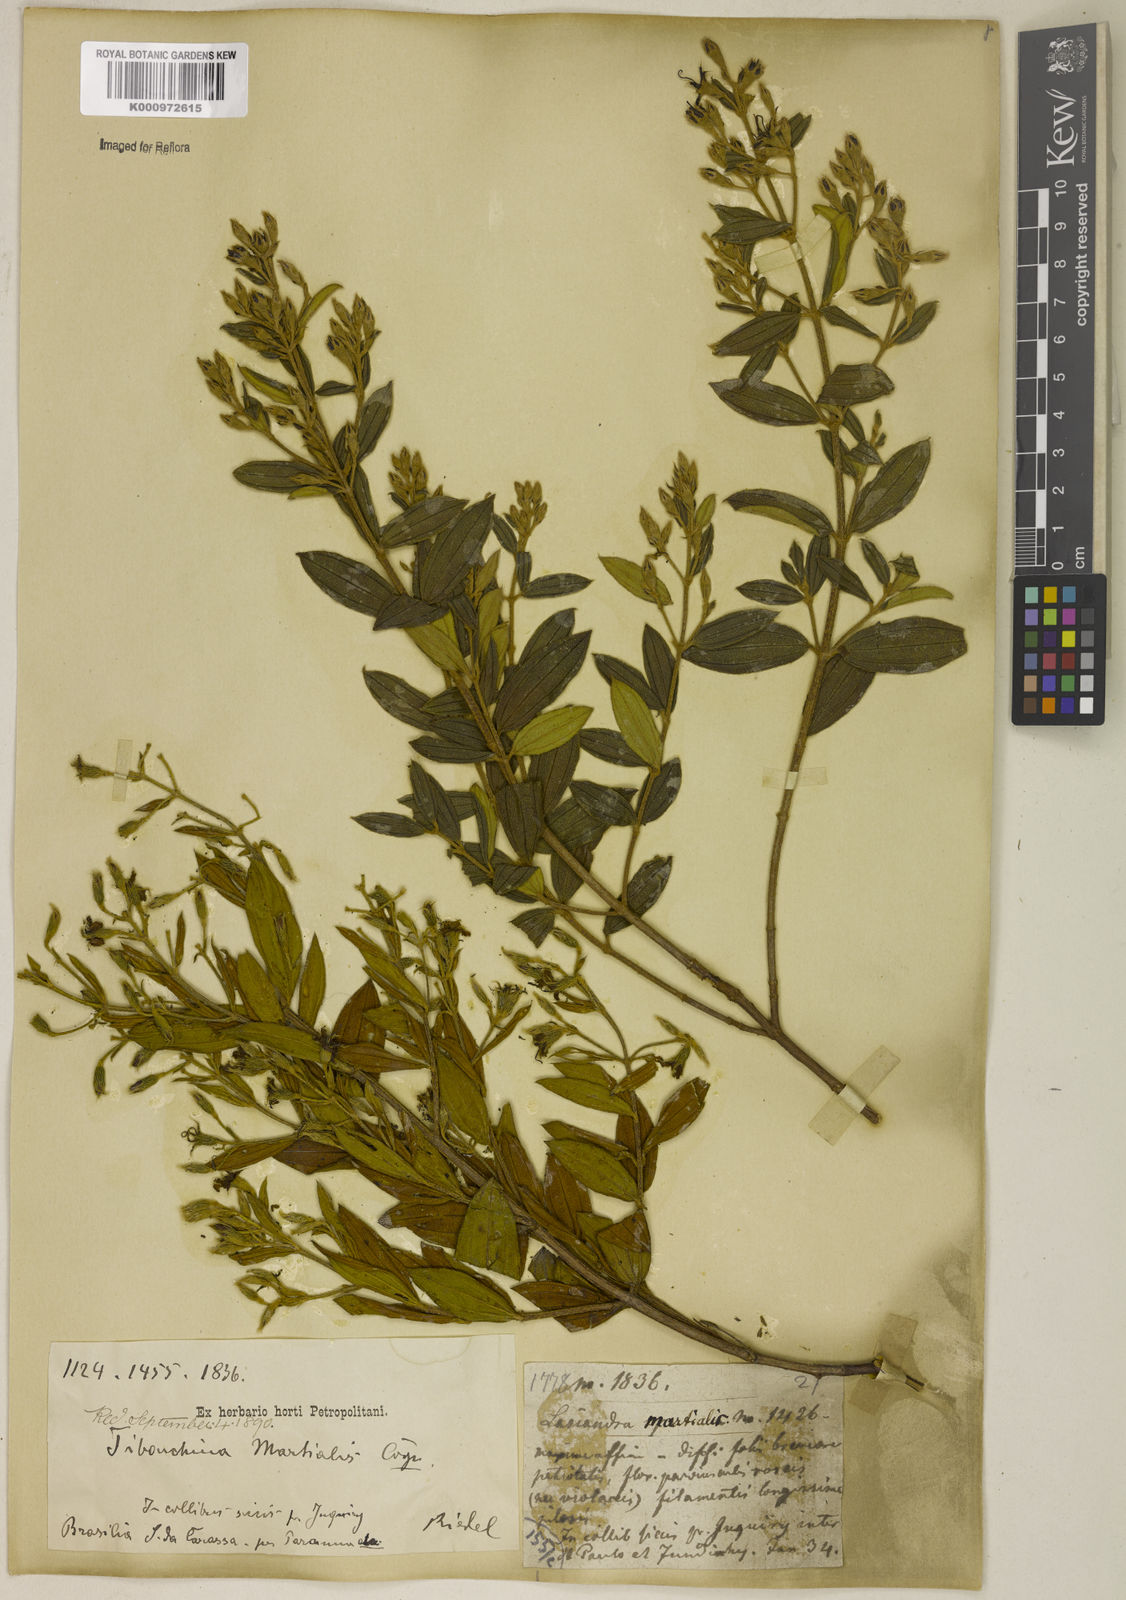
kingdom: Plantae
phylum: Tracheophyta
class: Magnoliopsida
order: Myrtales
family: Melastomataceae
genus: Pleroma
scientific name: Pleroma martiale
